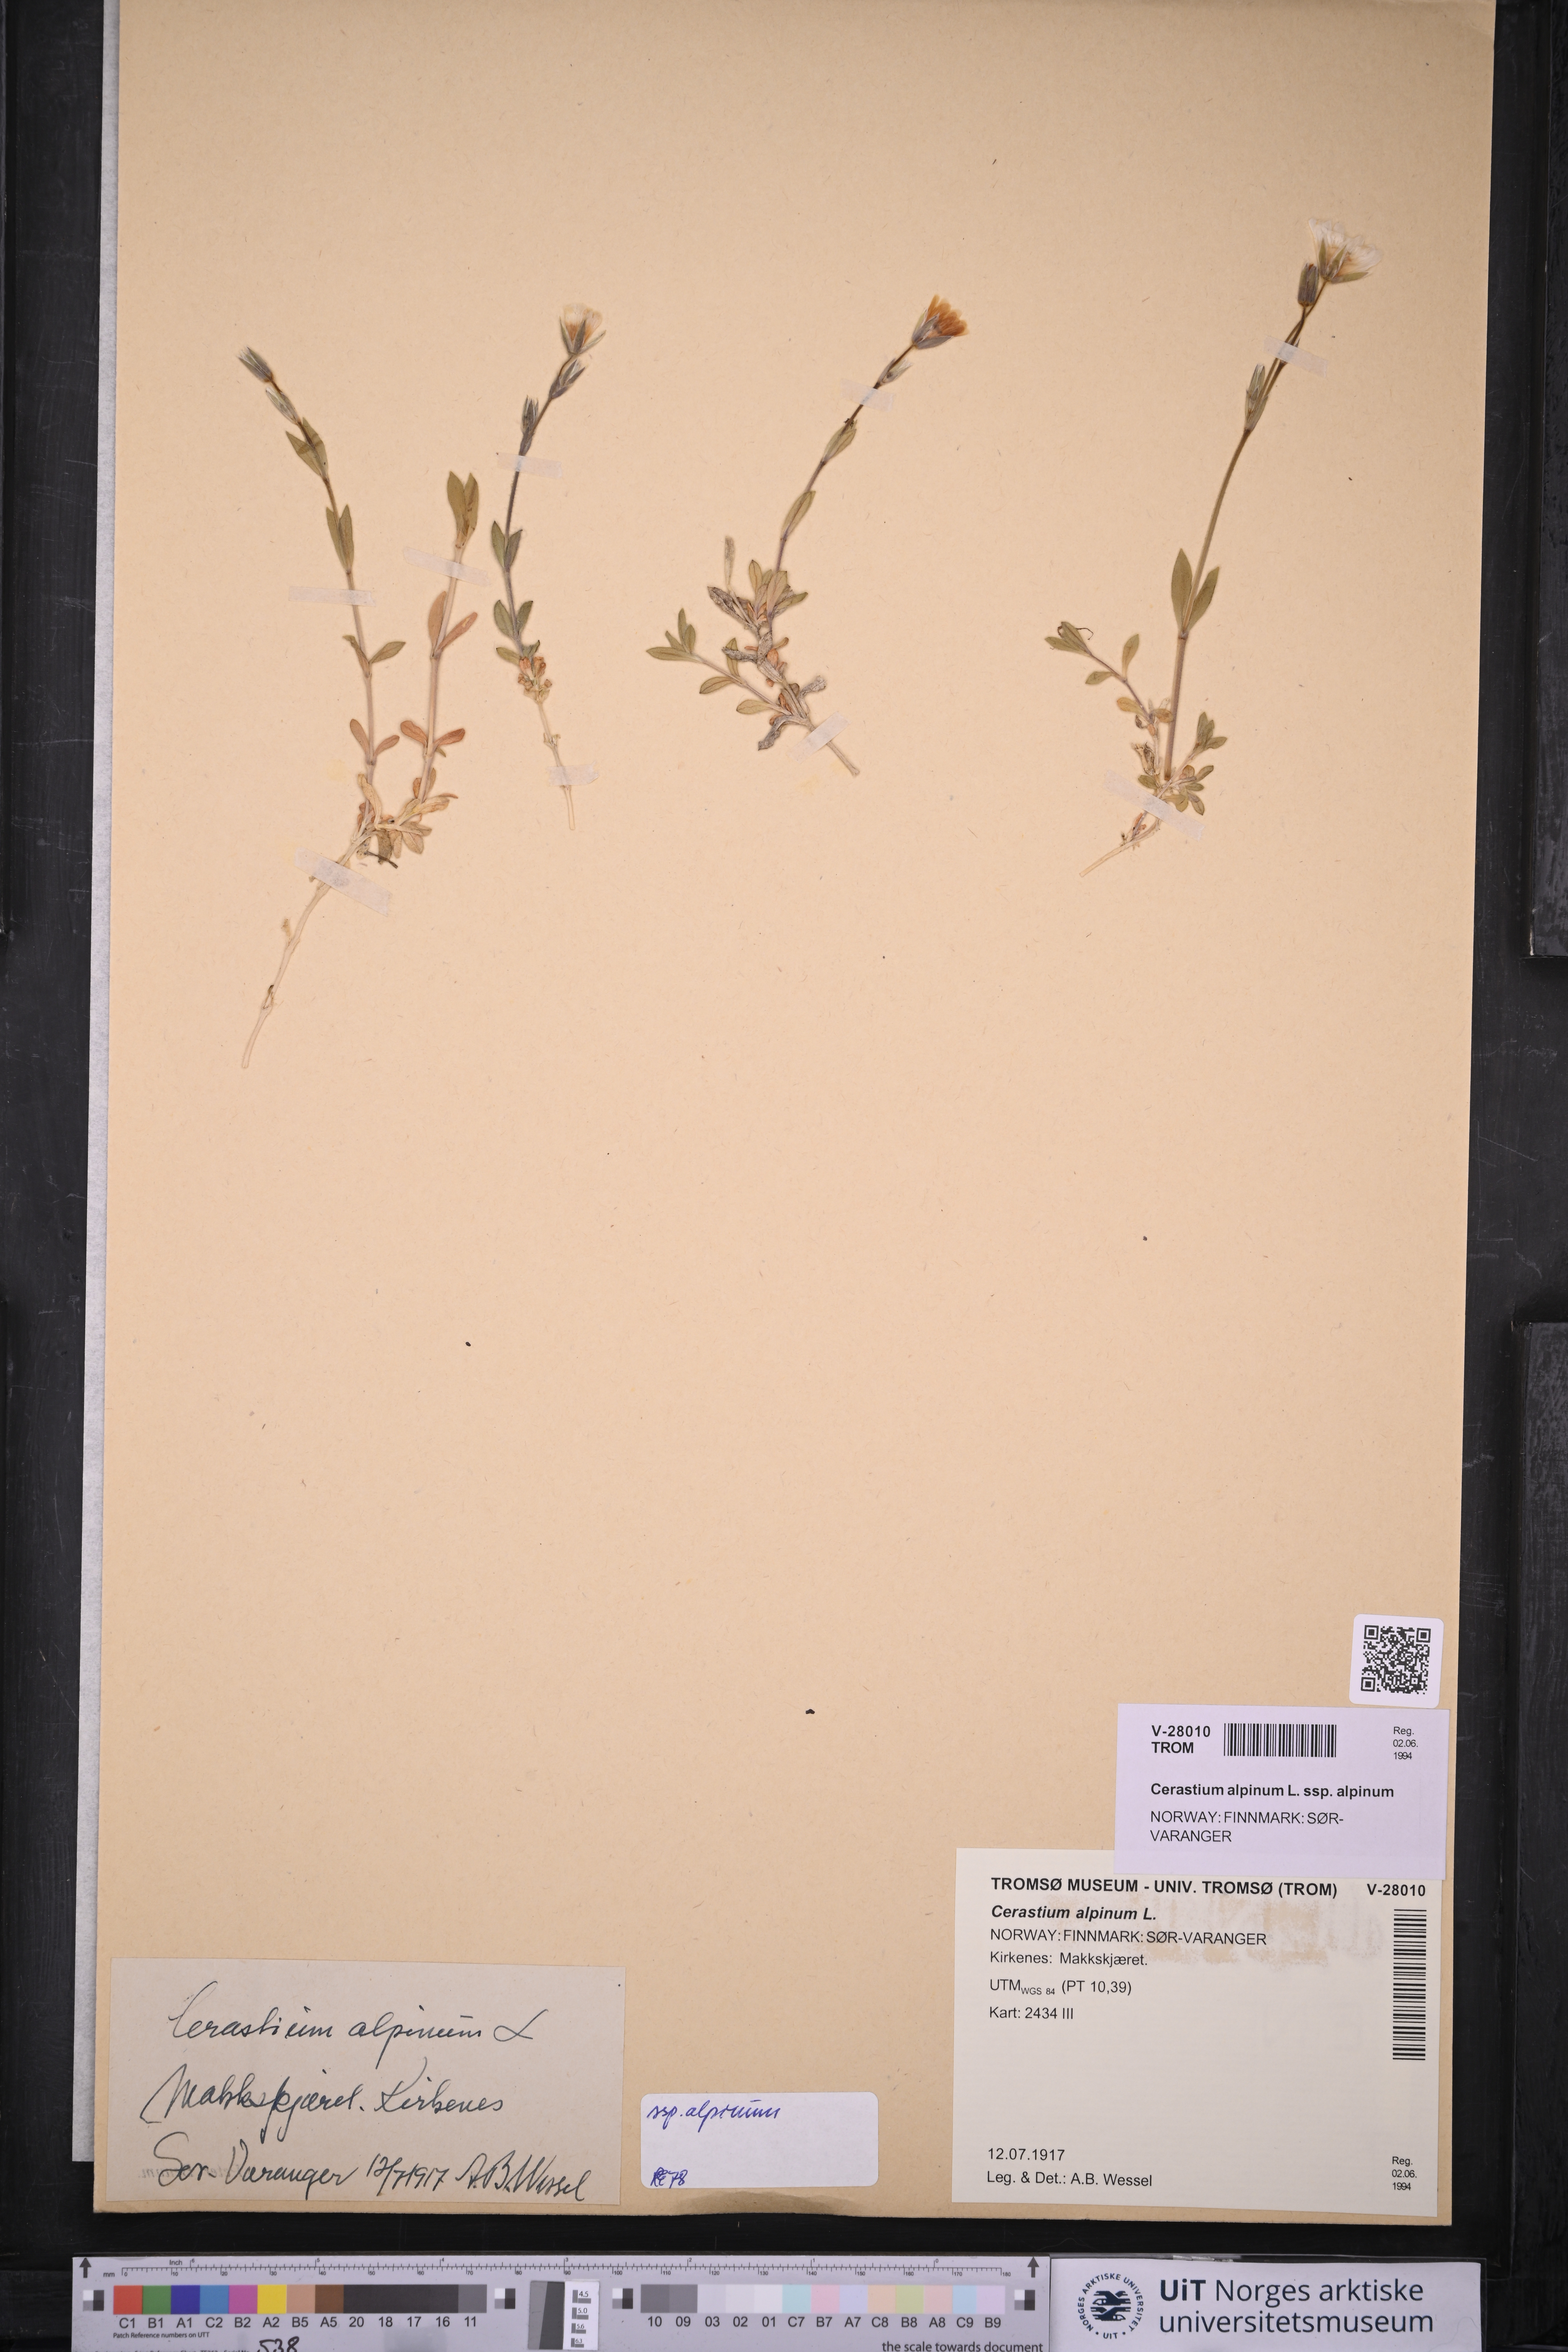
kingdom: Plantae
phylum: Tracheophyta
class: Magnoliopsida
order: Caryophyllales
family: Caryophyllaceae
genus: Cerastium
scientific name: Cerastium alpinum
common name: Alpine mouse-ear
